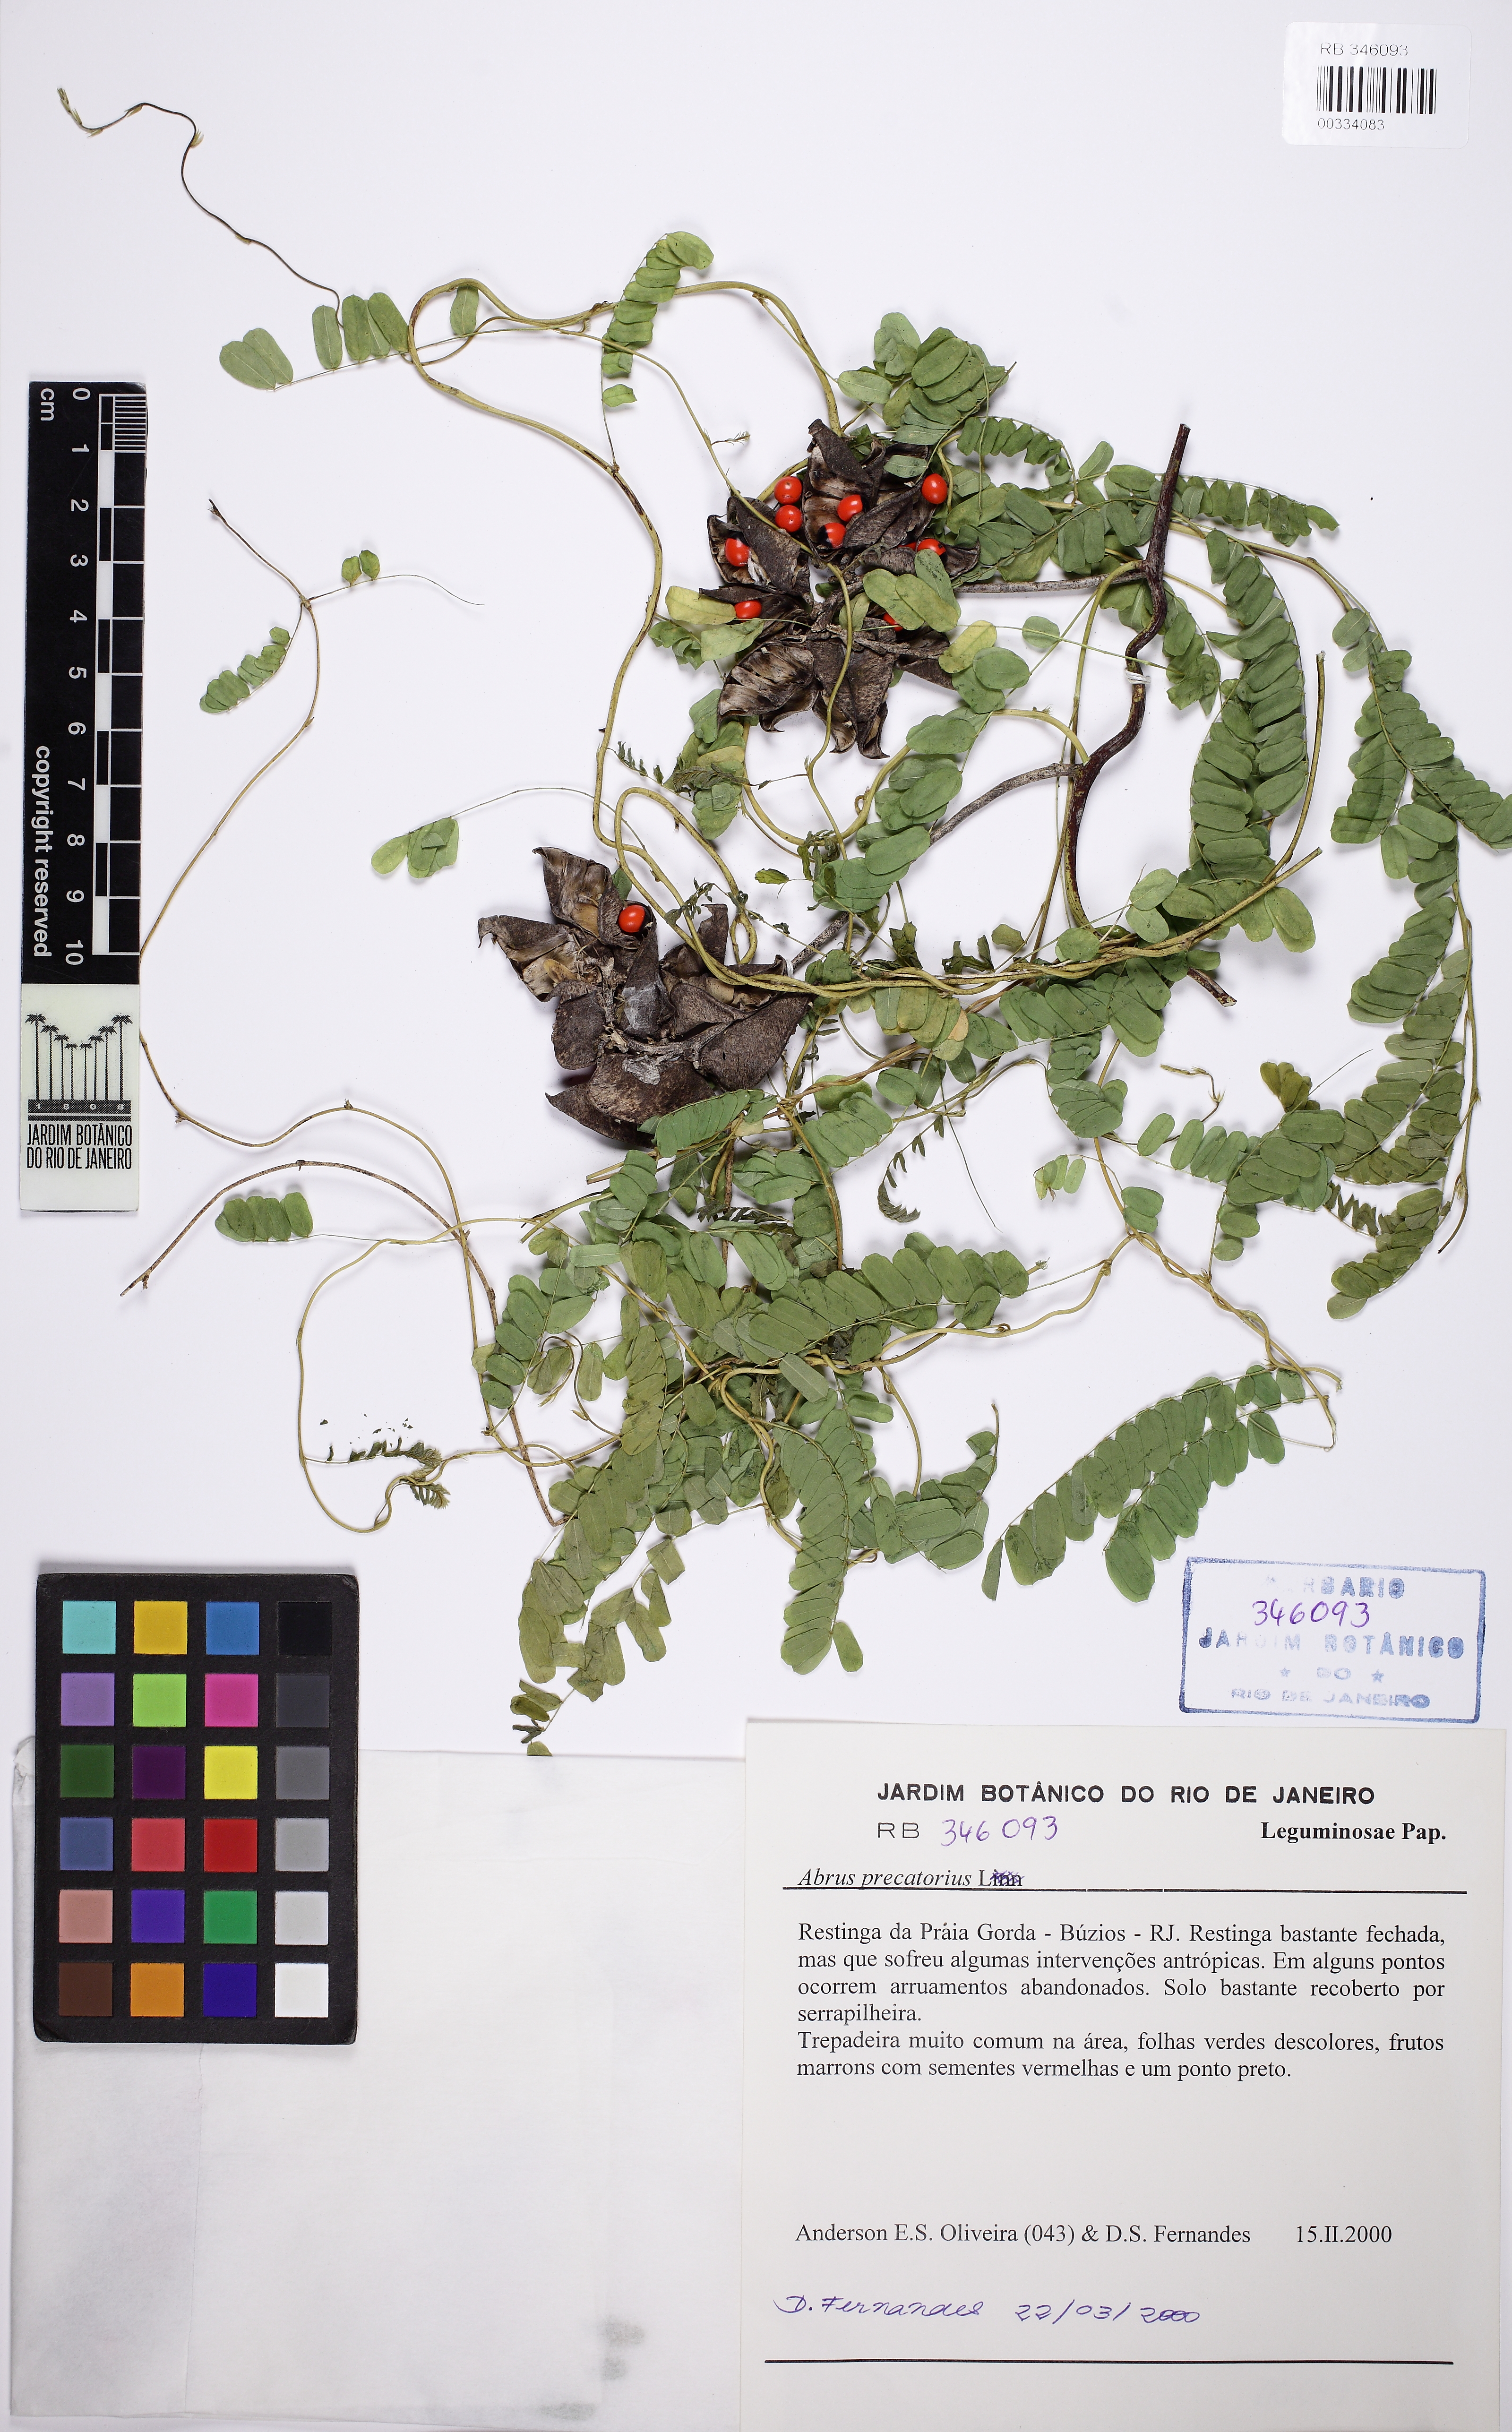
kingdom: Plantae
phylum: Tracheophyta
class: Magnoliopsida
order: Fabales
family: Fabaceae
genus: Abrus
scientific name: Abrus precatorius
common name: Rosarypea
